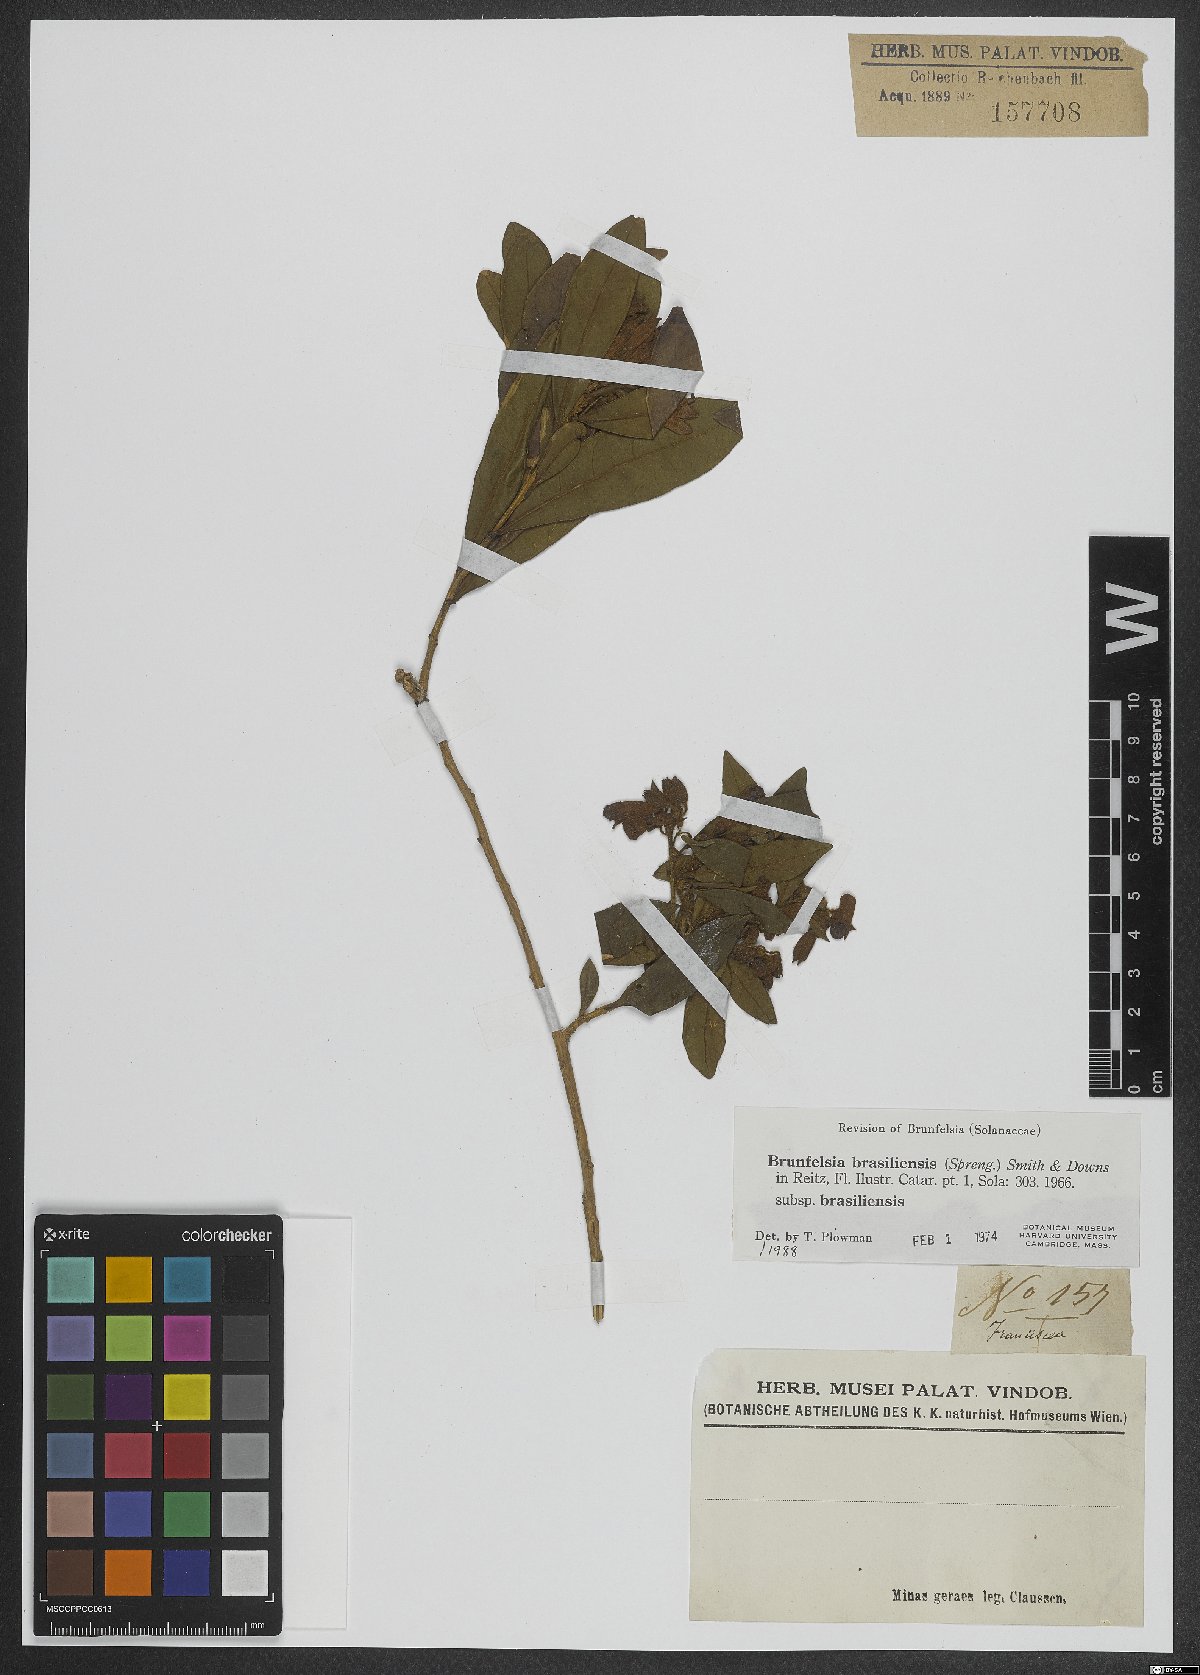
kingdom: Plantae
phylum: Tracheophyta
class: Magnoliopsida
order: Solanales
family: Solanaceae
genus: Brunfelsia
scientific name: Brunfelsia brasiliensis
